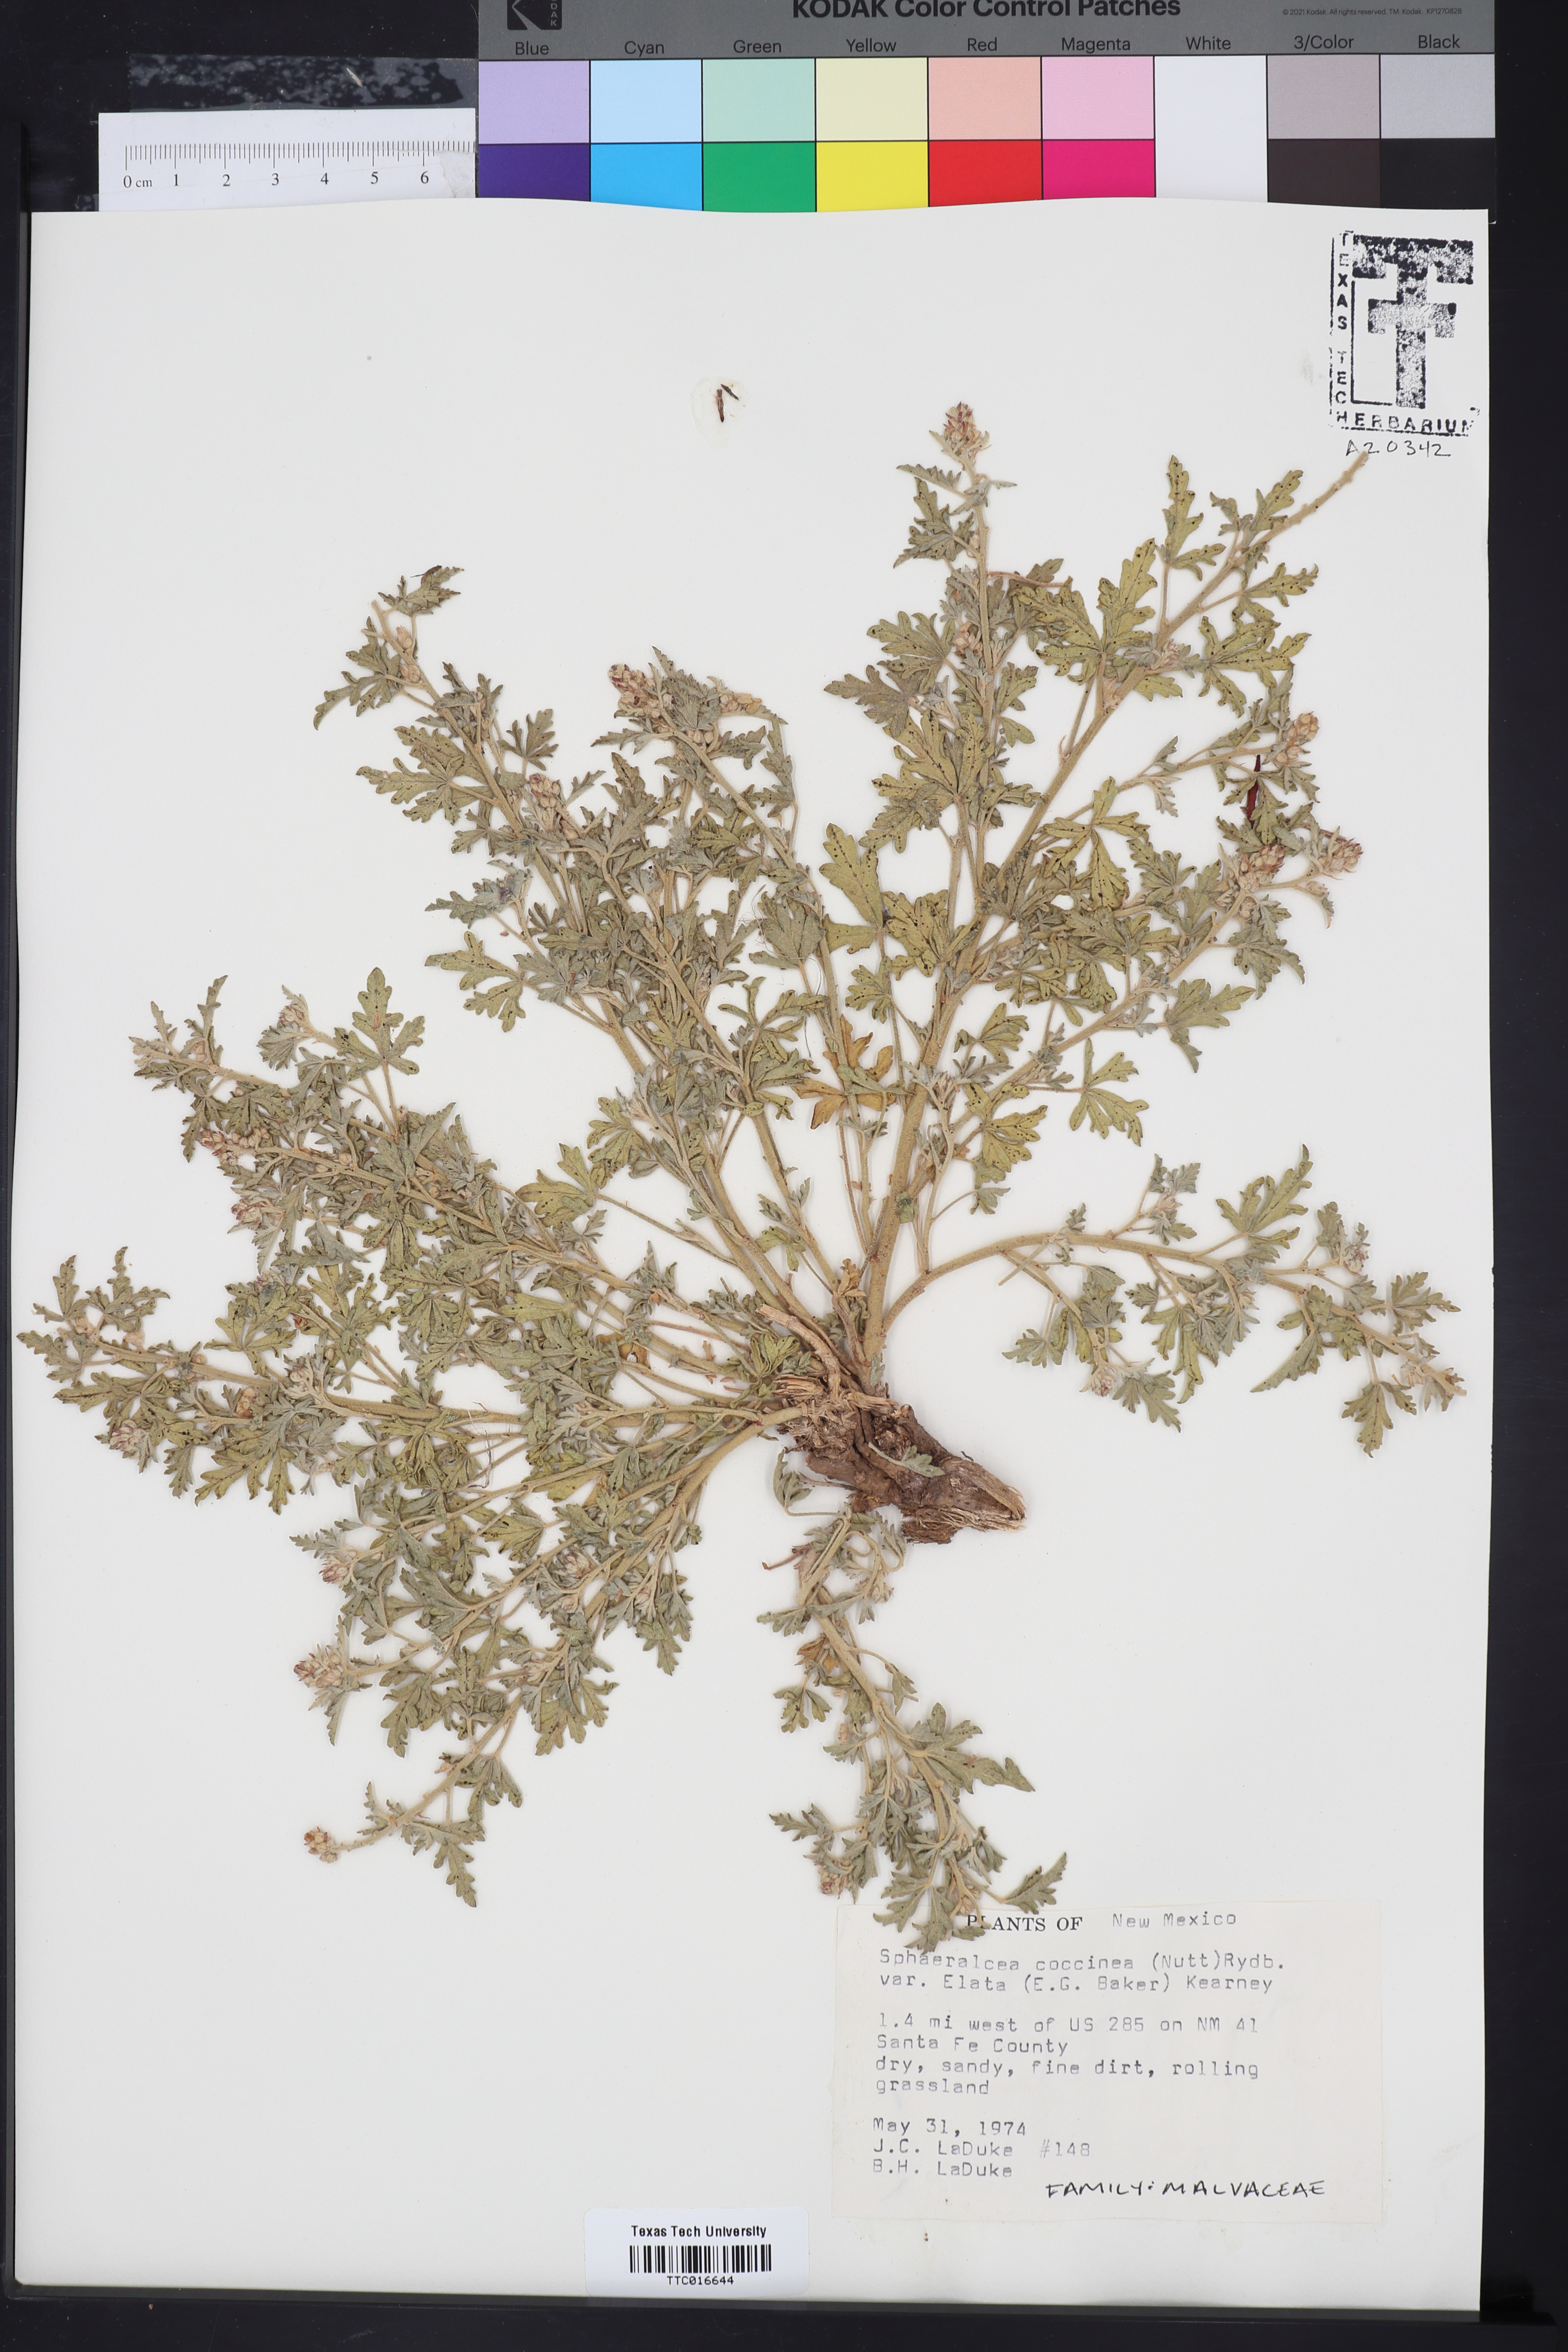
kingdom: Plantae
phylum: Tracheophyta
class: Magnoliopsida
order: Malvales
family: Malvaceae
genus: Sphaeralcea
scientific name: Sphaeralcea coccinea
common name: Moss-rose
